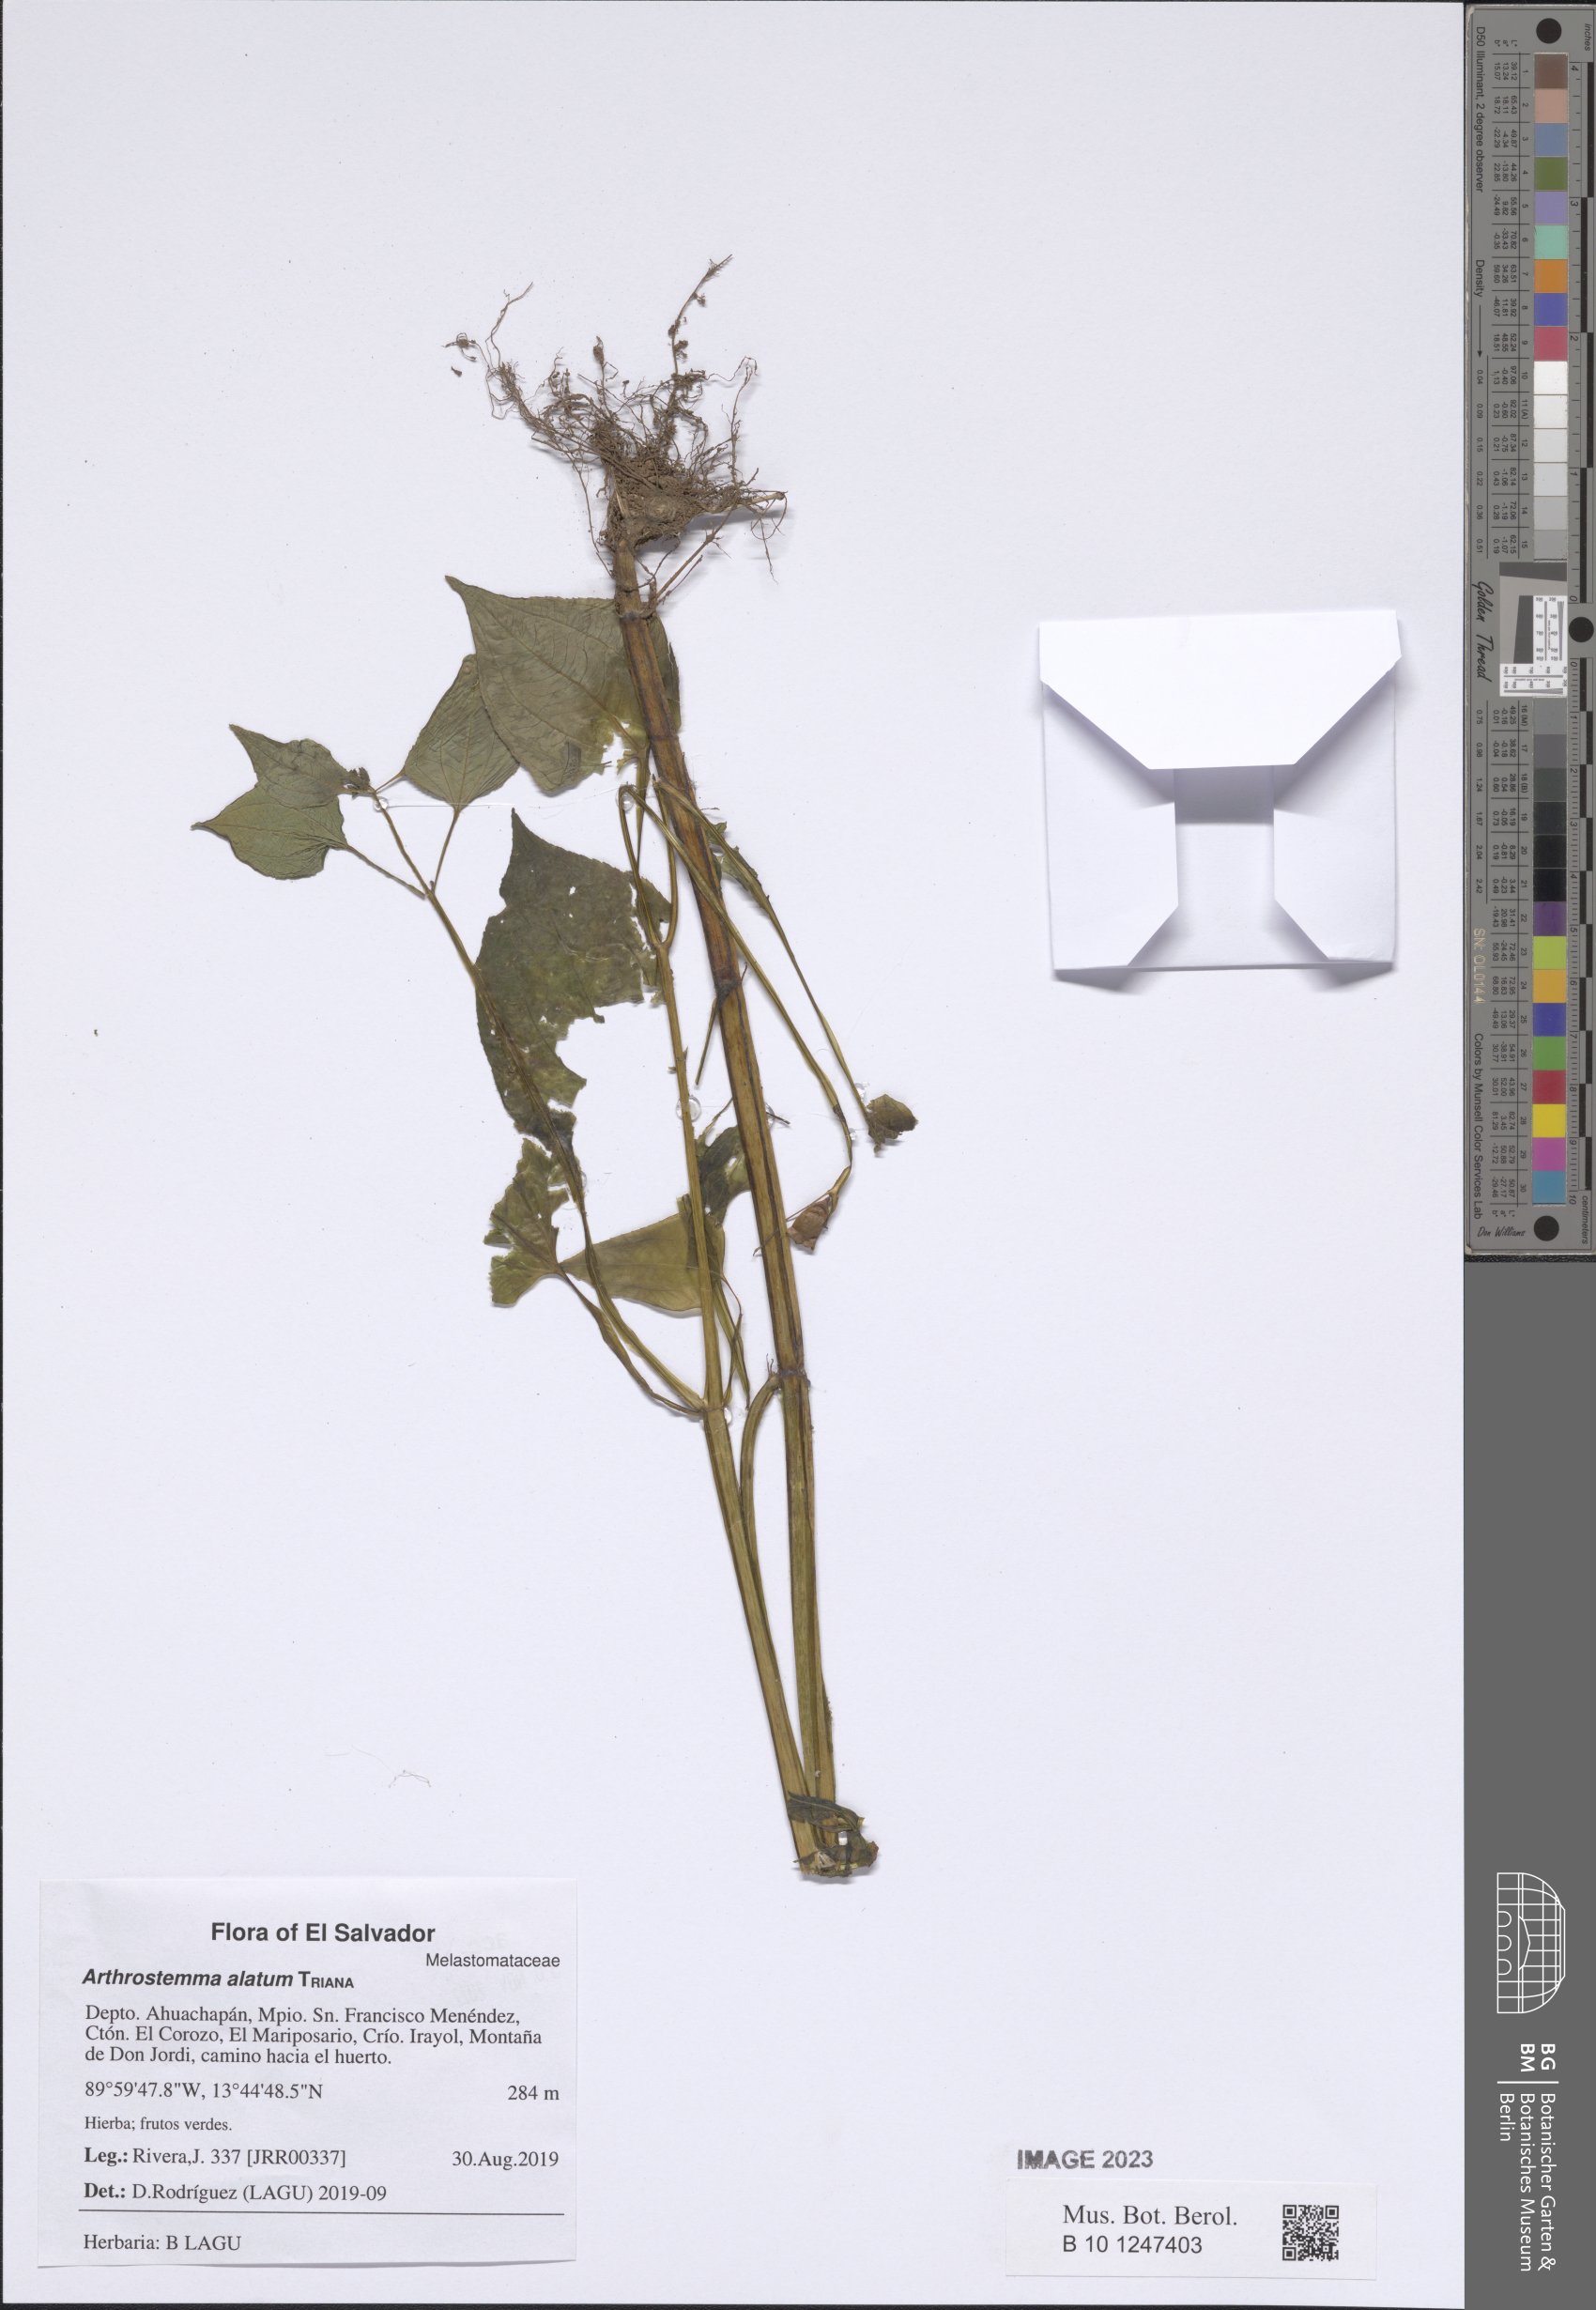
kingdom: Plantae
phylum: Tracheophyta
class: Magnoliopsida
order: Myrtales
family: Melastomataceae
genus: Arthrostemma
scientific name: Arthrostemma alatum
